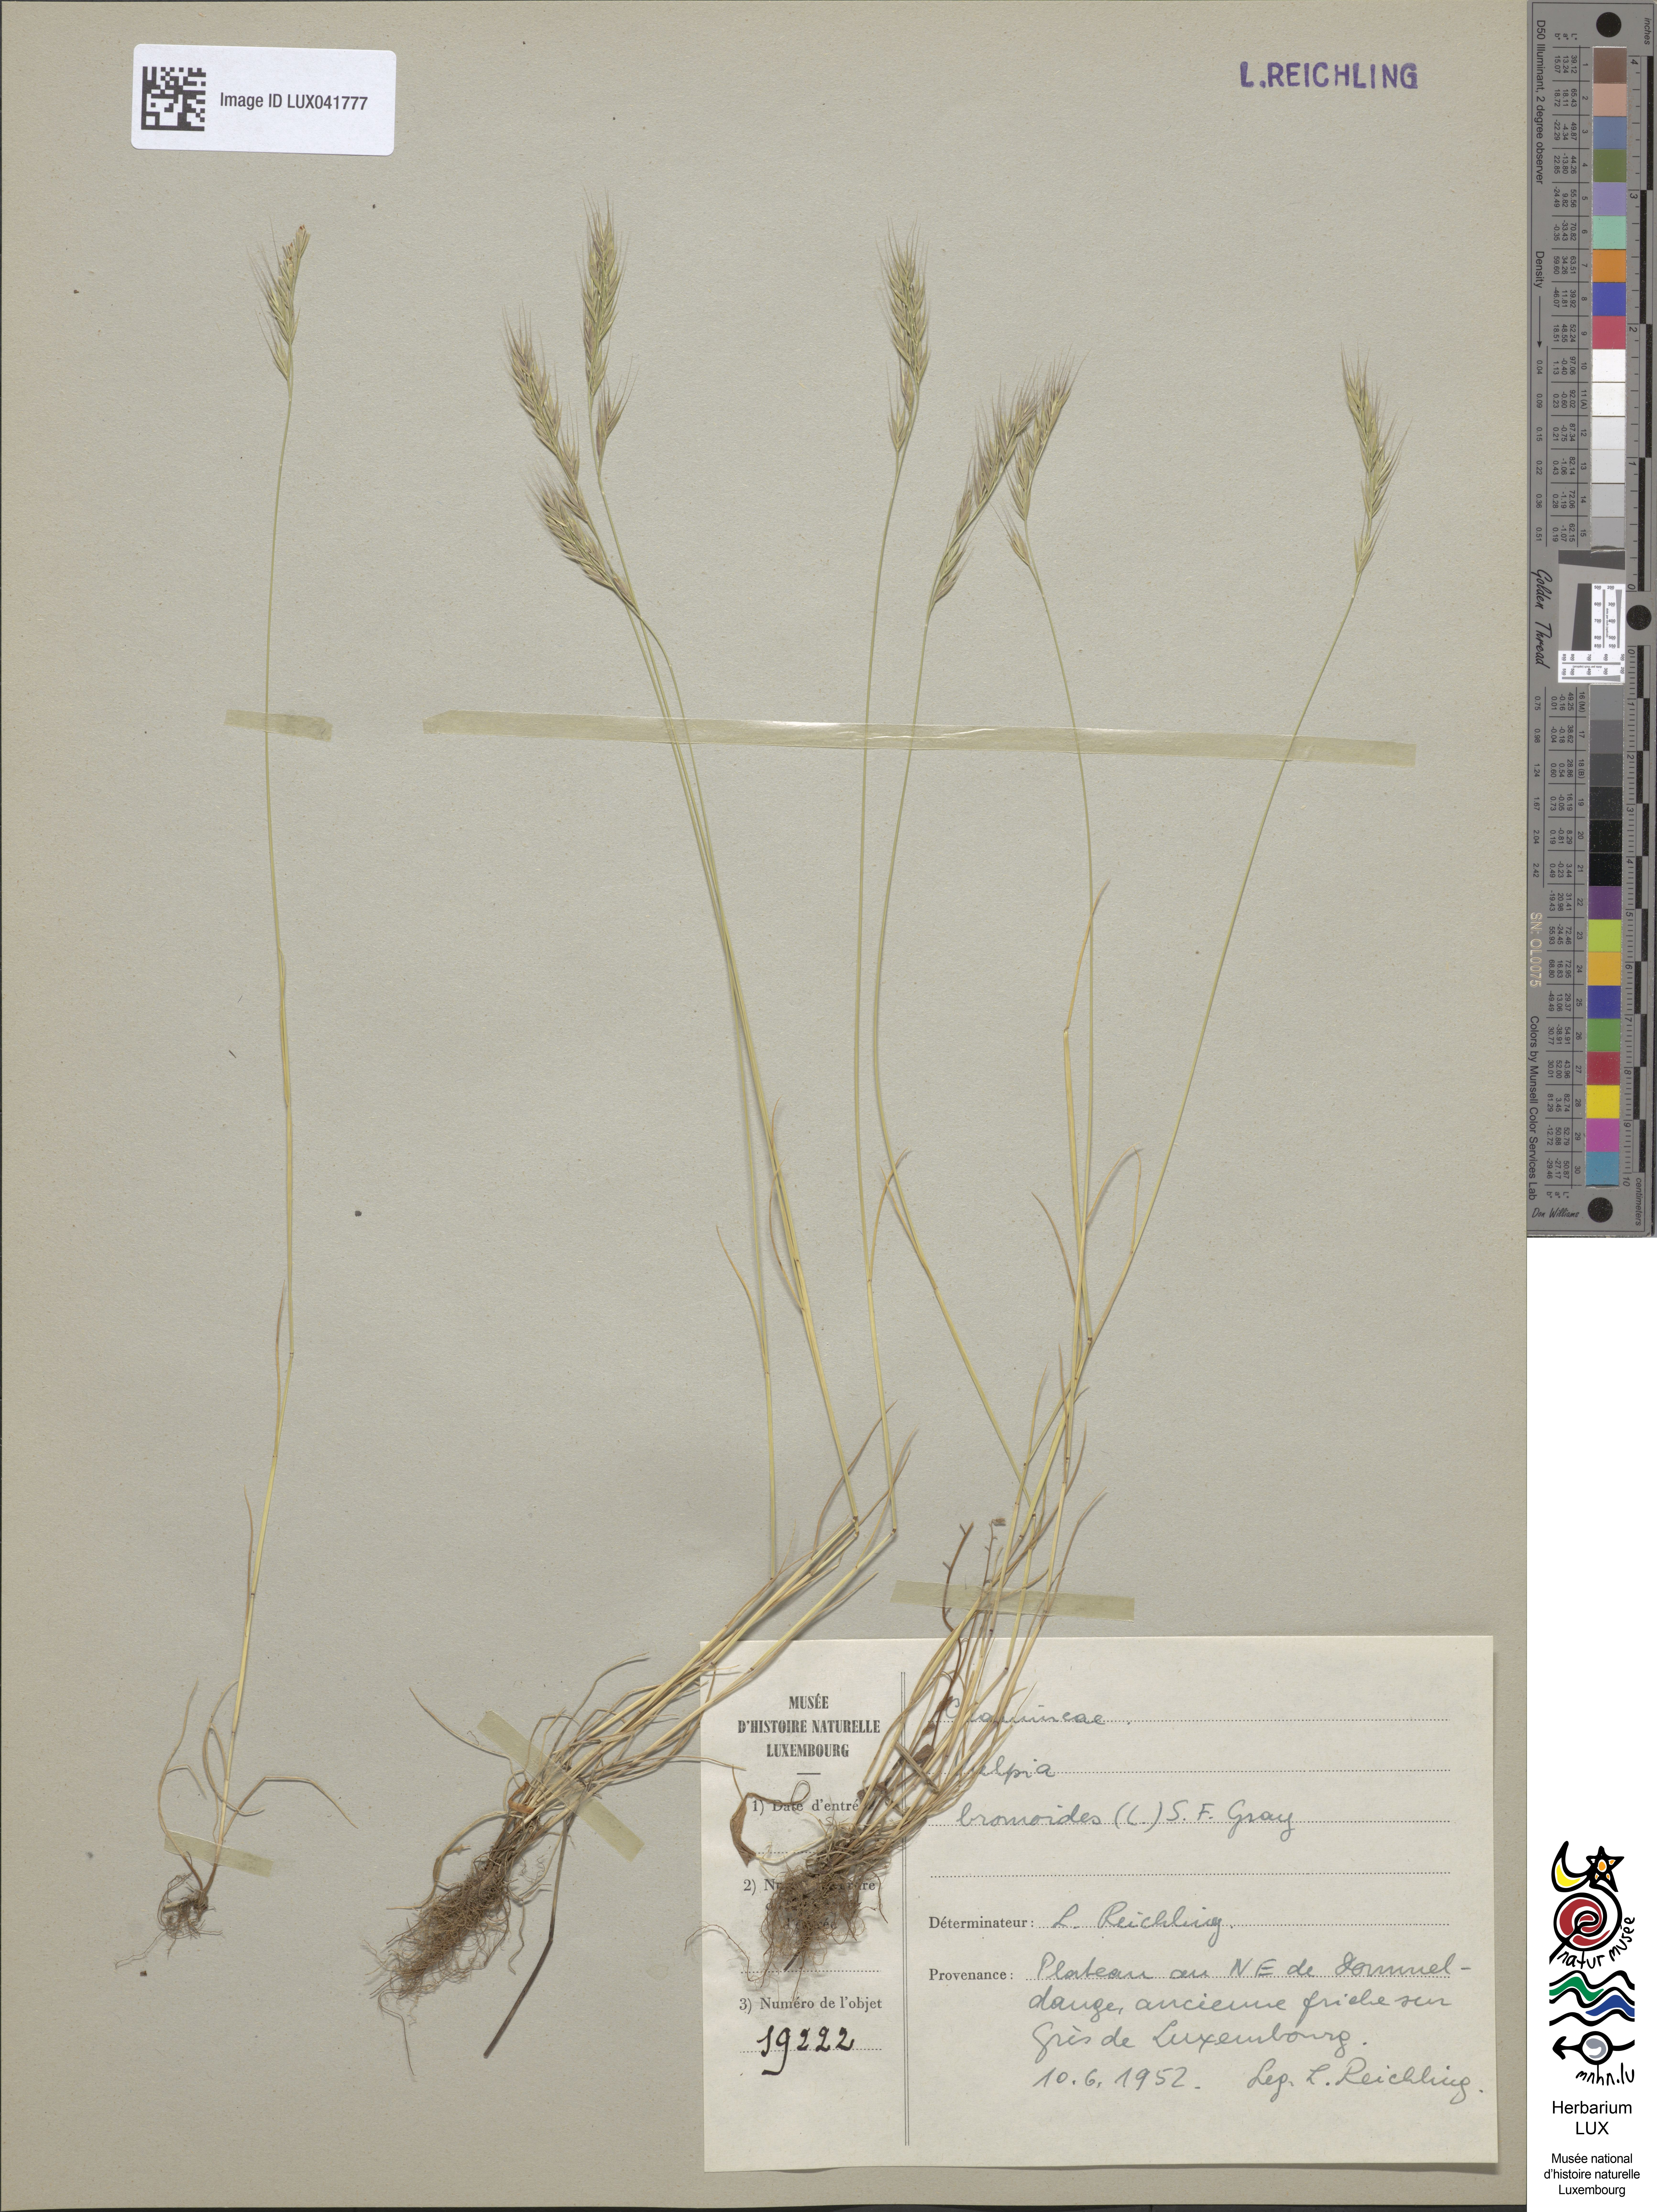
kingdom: Plantae
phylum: Tracheophyta
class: Liliopsida
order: Poales
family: Poaceae
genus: Festuca
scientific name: Festuca bromoides
